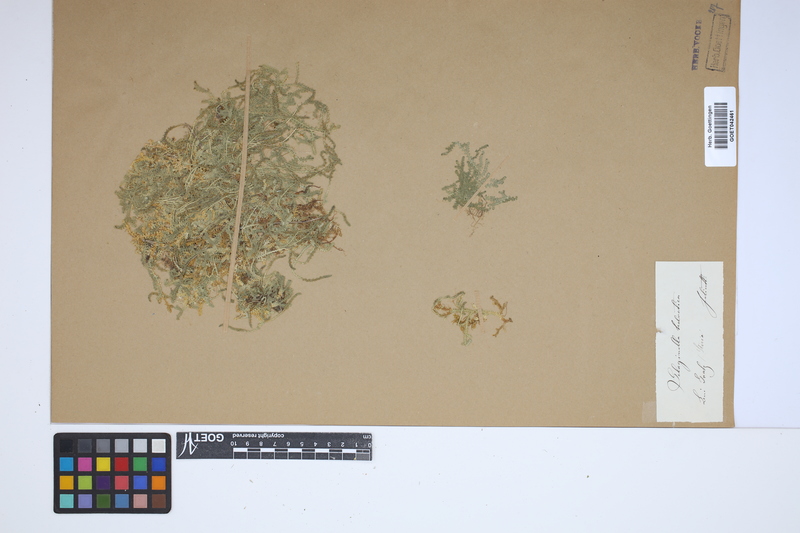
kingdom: Plantae
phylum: Tracheophyta
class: Lycopodiopsida
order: Selaginellales
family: Selaginellaceae
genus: Selaginella
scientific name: Selaginella helvetica
